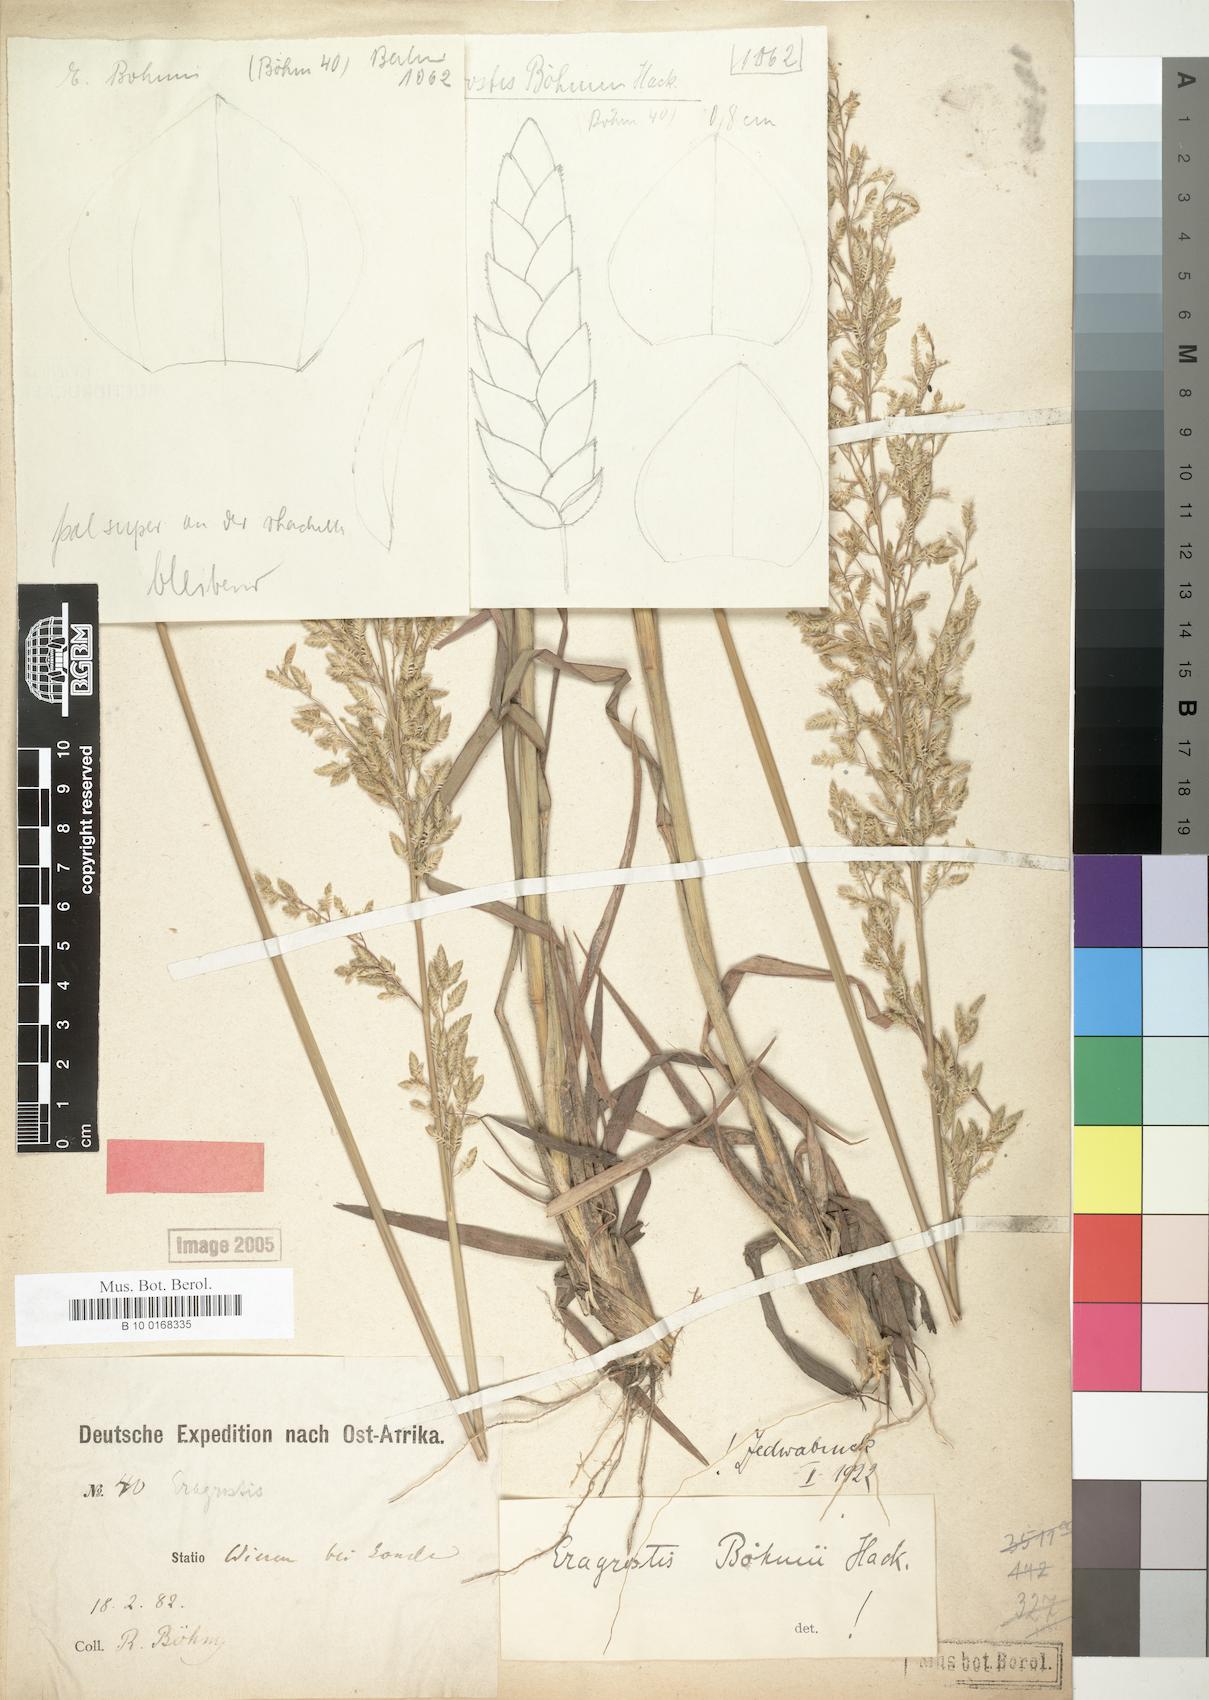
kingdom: Plantae
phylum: Tracheophyta
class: Liliopsida
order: Poales
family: Poaceae
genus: Eragrostis
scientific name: Eragrostis racemosa
